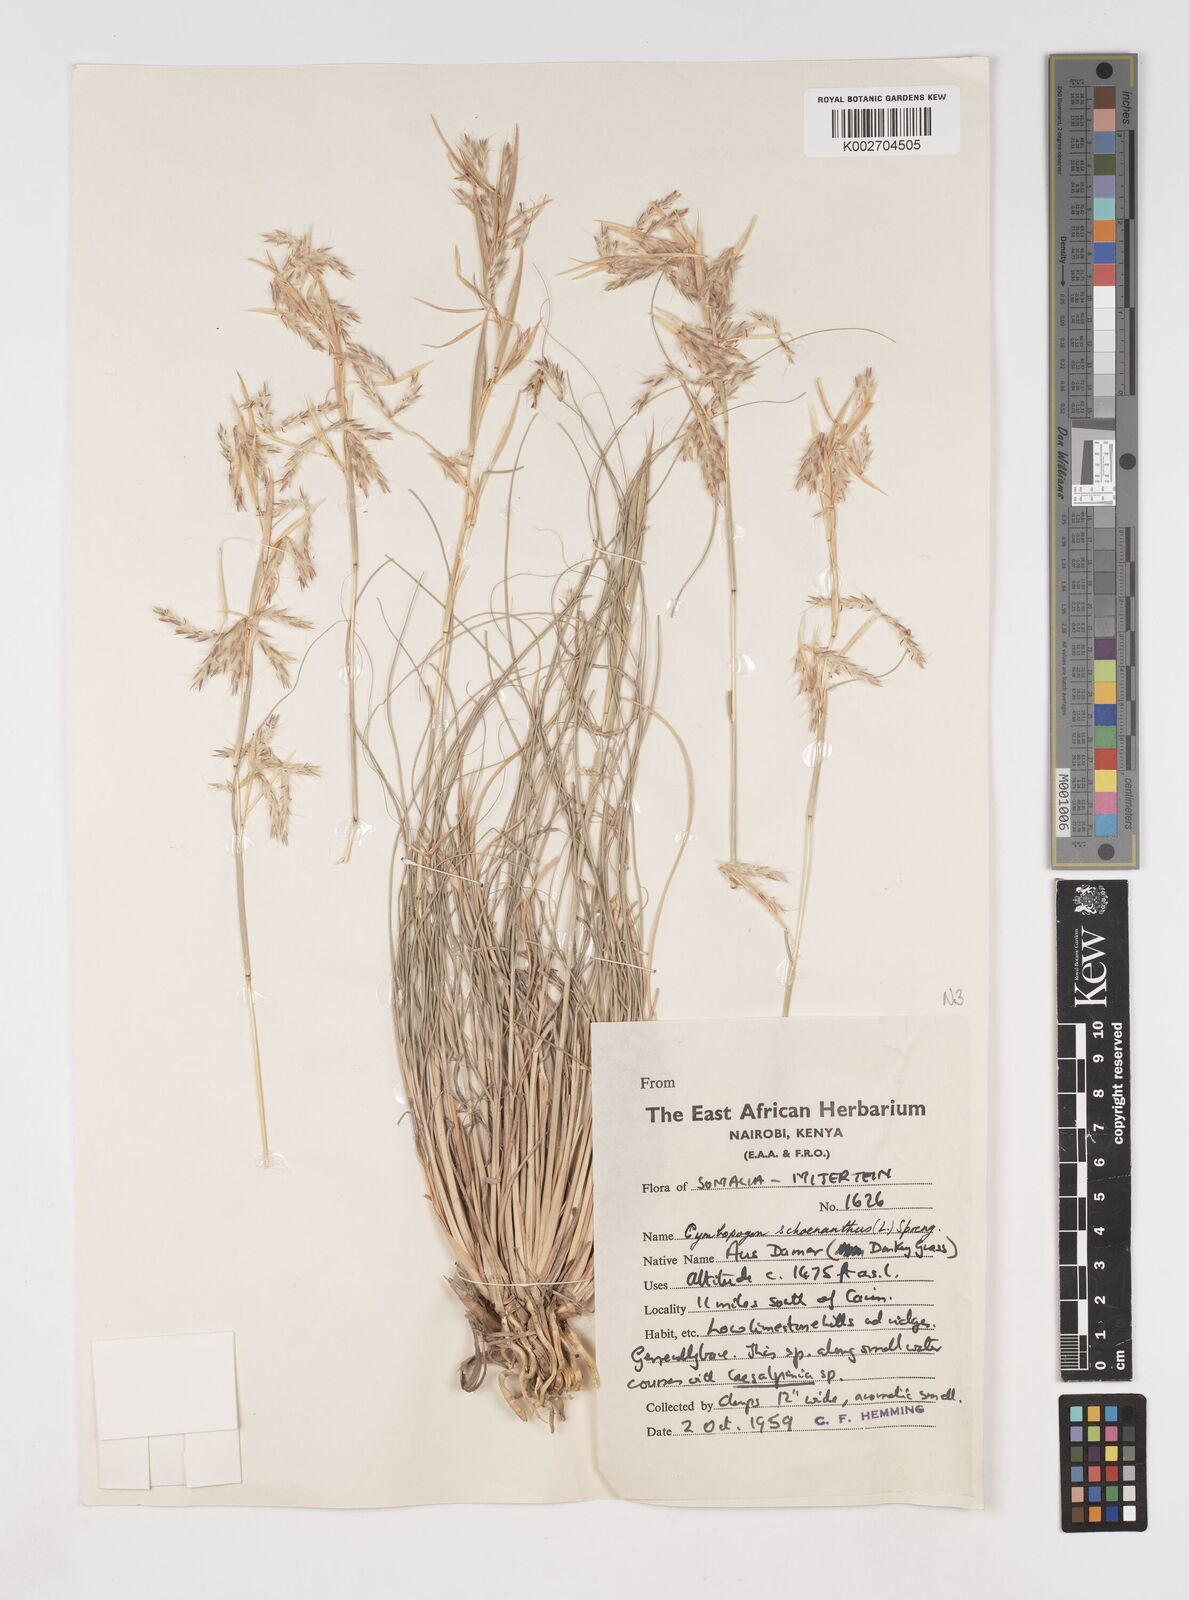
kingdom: Plantae
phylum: Tracheophyta
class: Liliopsida
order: Poales
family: Poaceae
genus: Cymbopogon
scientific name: Cymbopogon schoenanthus
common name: Geranium grass
